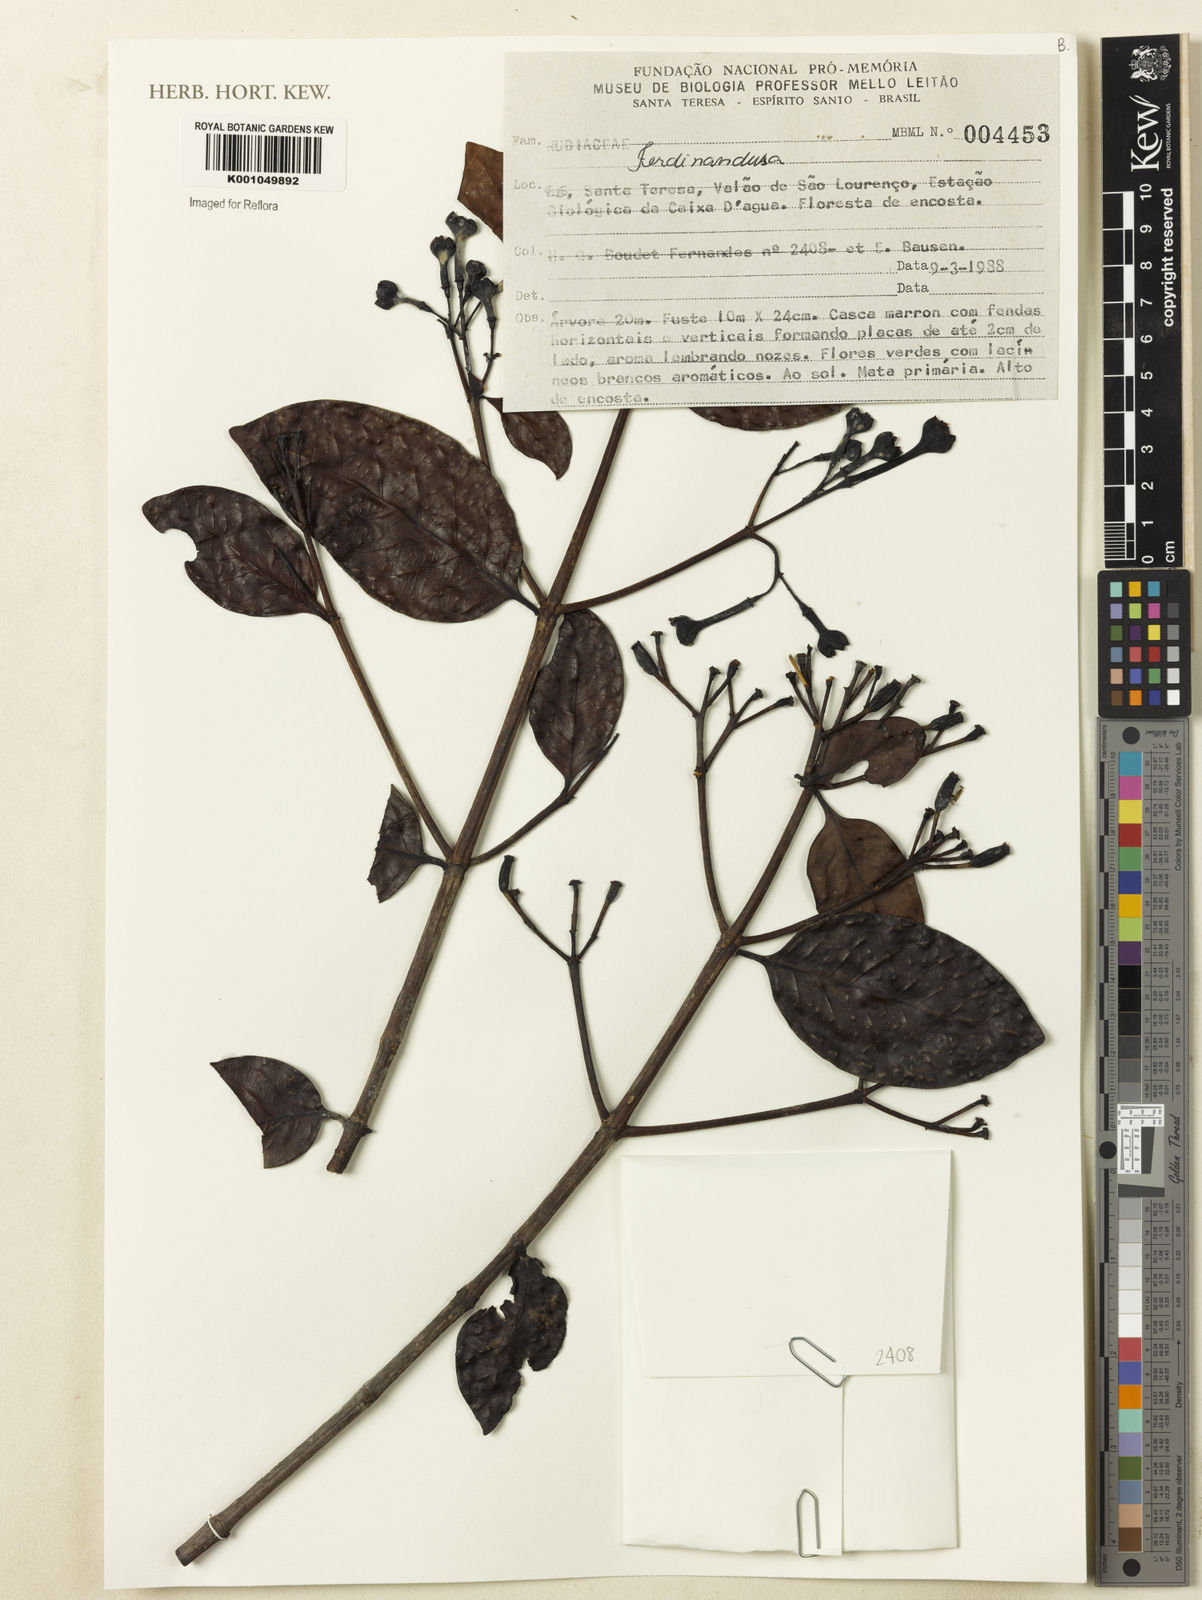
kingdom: Plantae
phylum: Tracheophyta
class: Magnoliopsida
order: Gentianales
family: Rubiaceae
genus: Ferdinandusa
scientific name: Ferdinandusa
